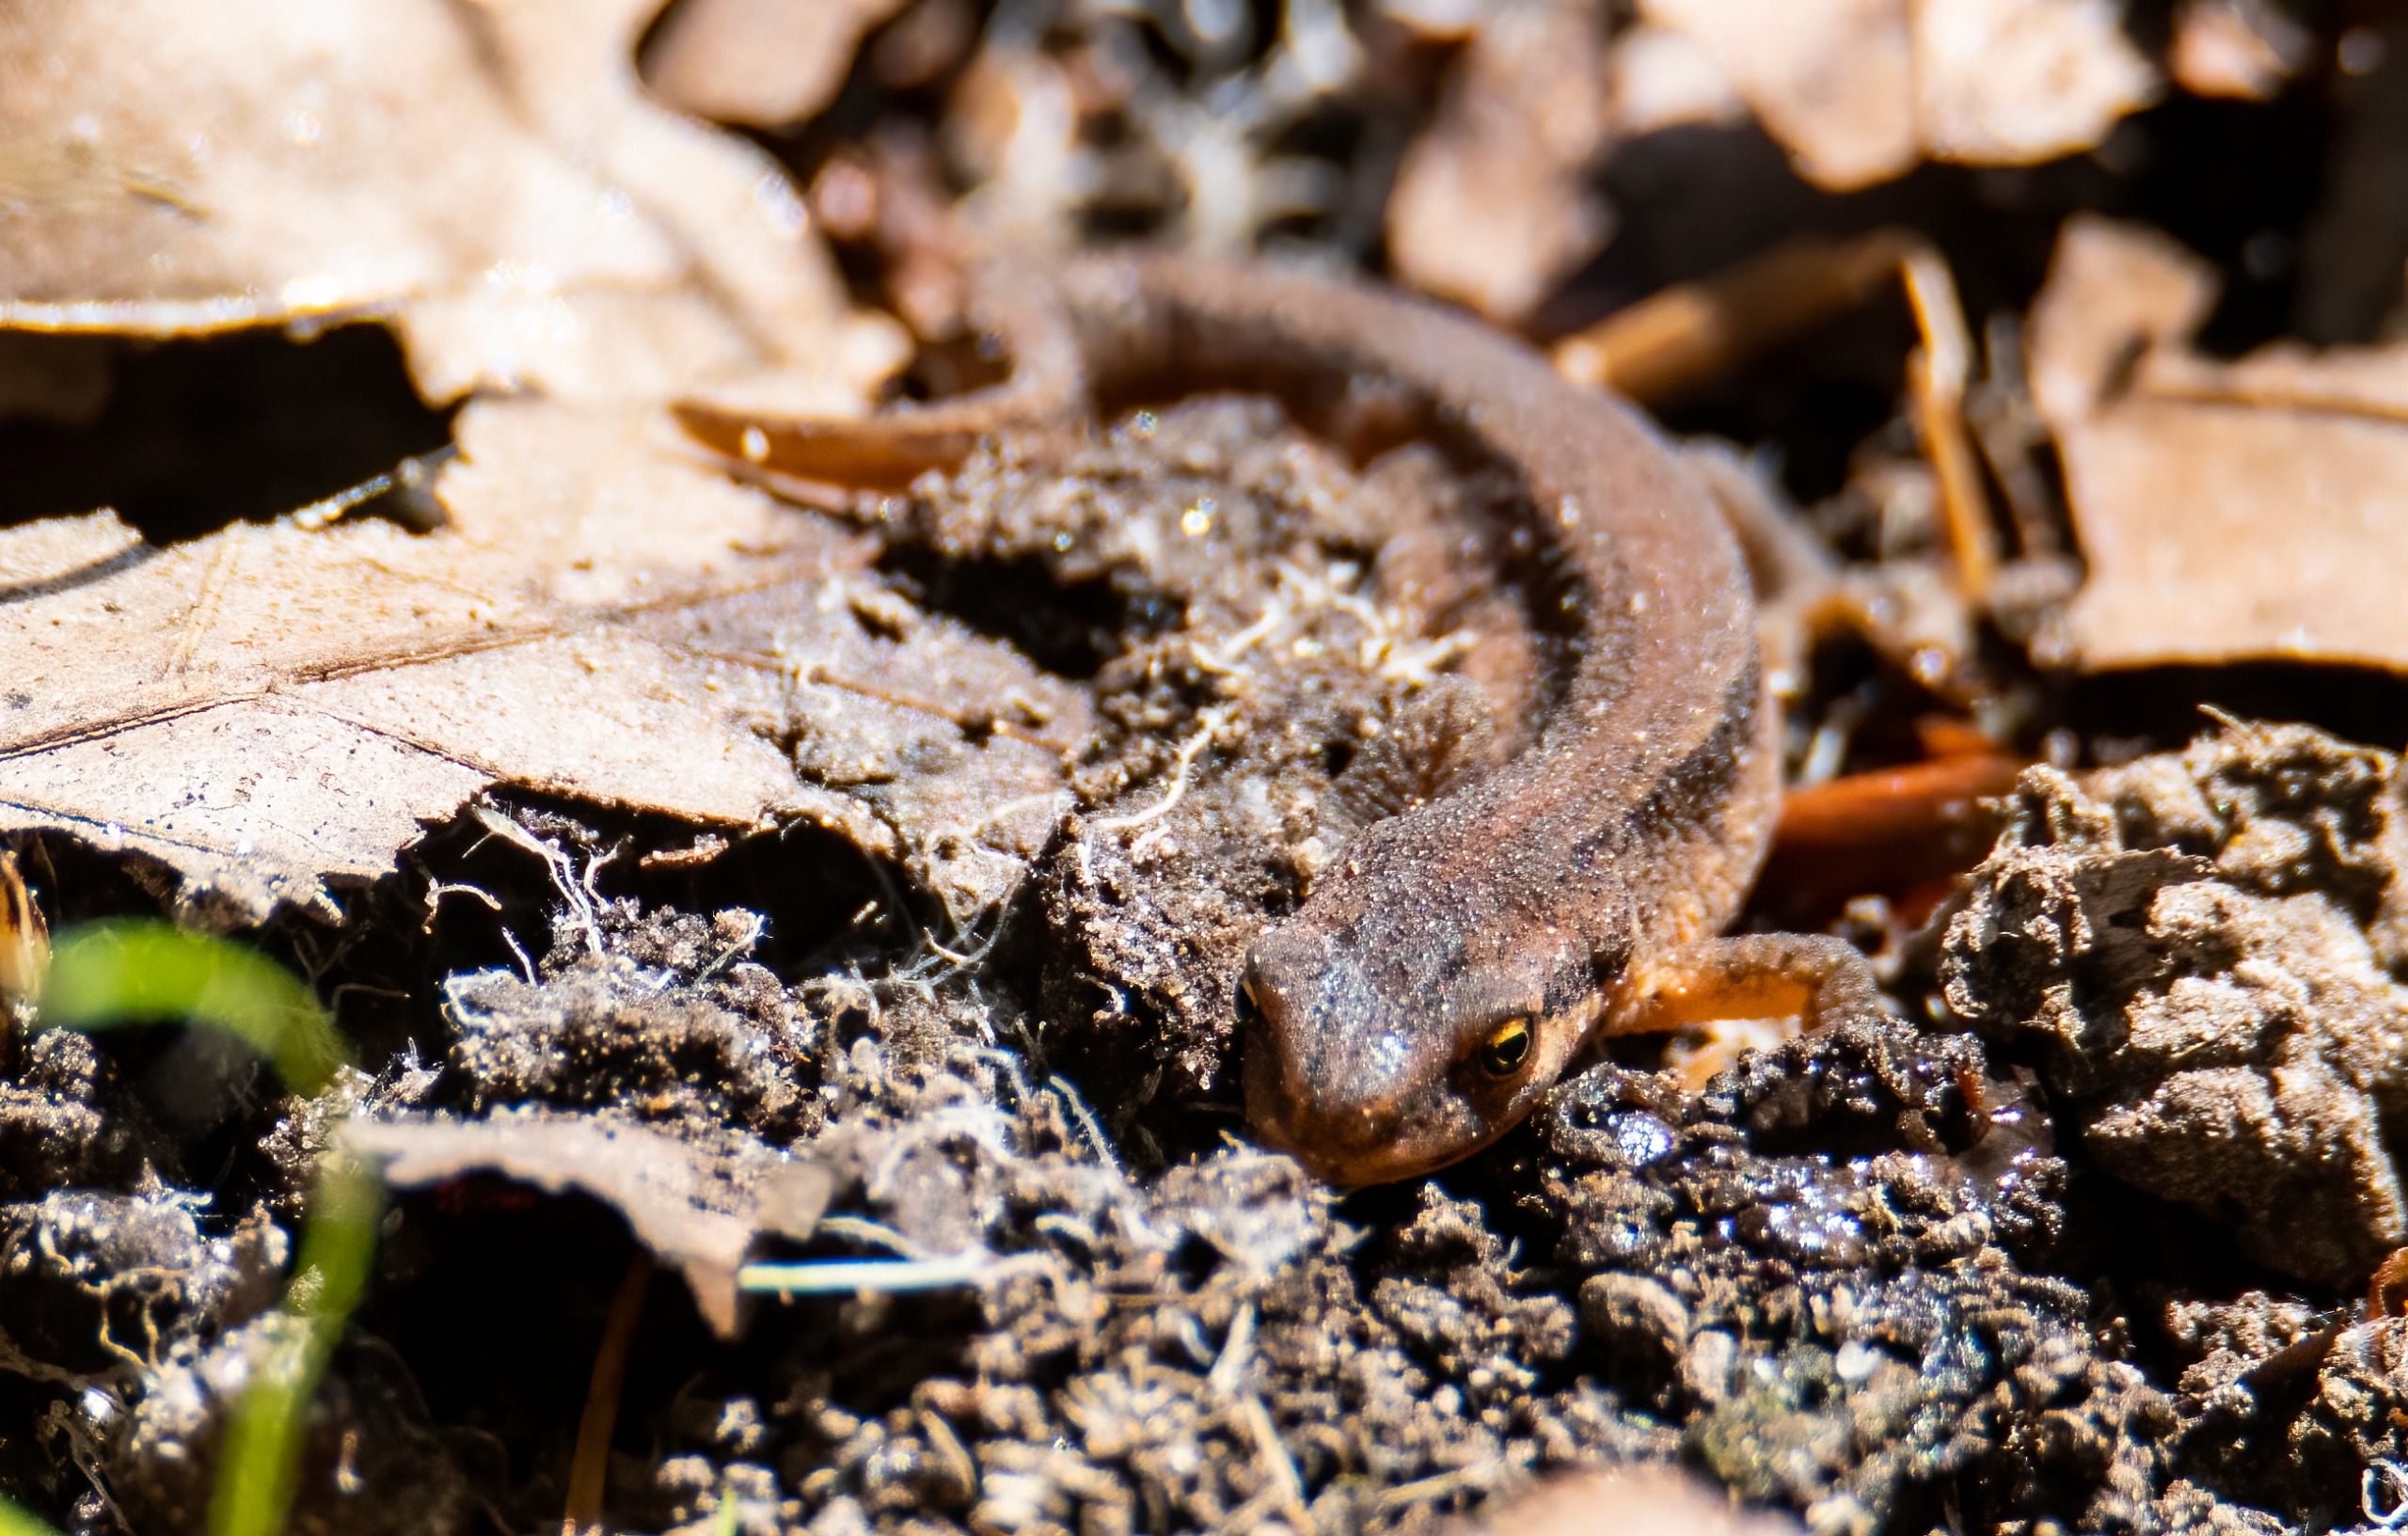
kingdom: Animalia
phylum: Chordata
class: Amphibia
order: Caudata
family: Salamandridae
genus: Lissotriton
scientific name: Lissotriton vulgaris
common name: Lille vandsalamander
